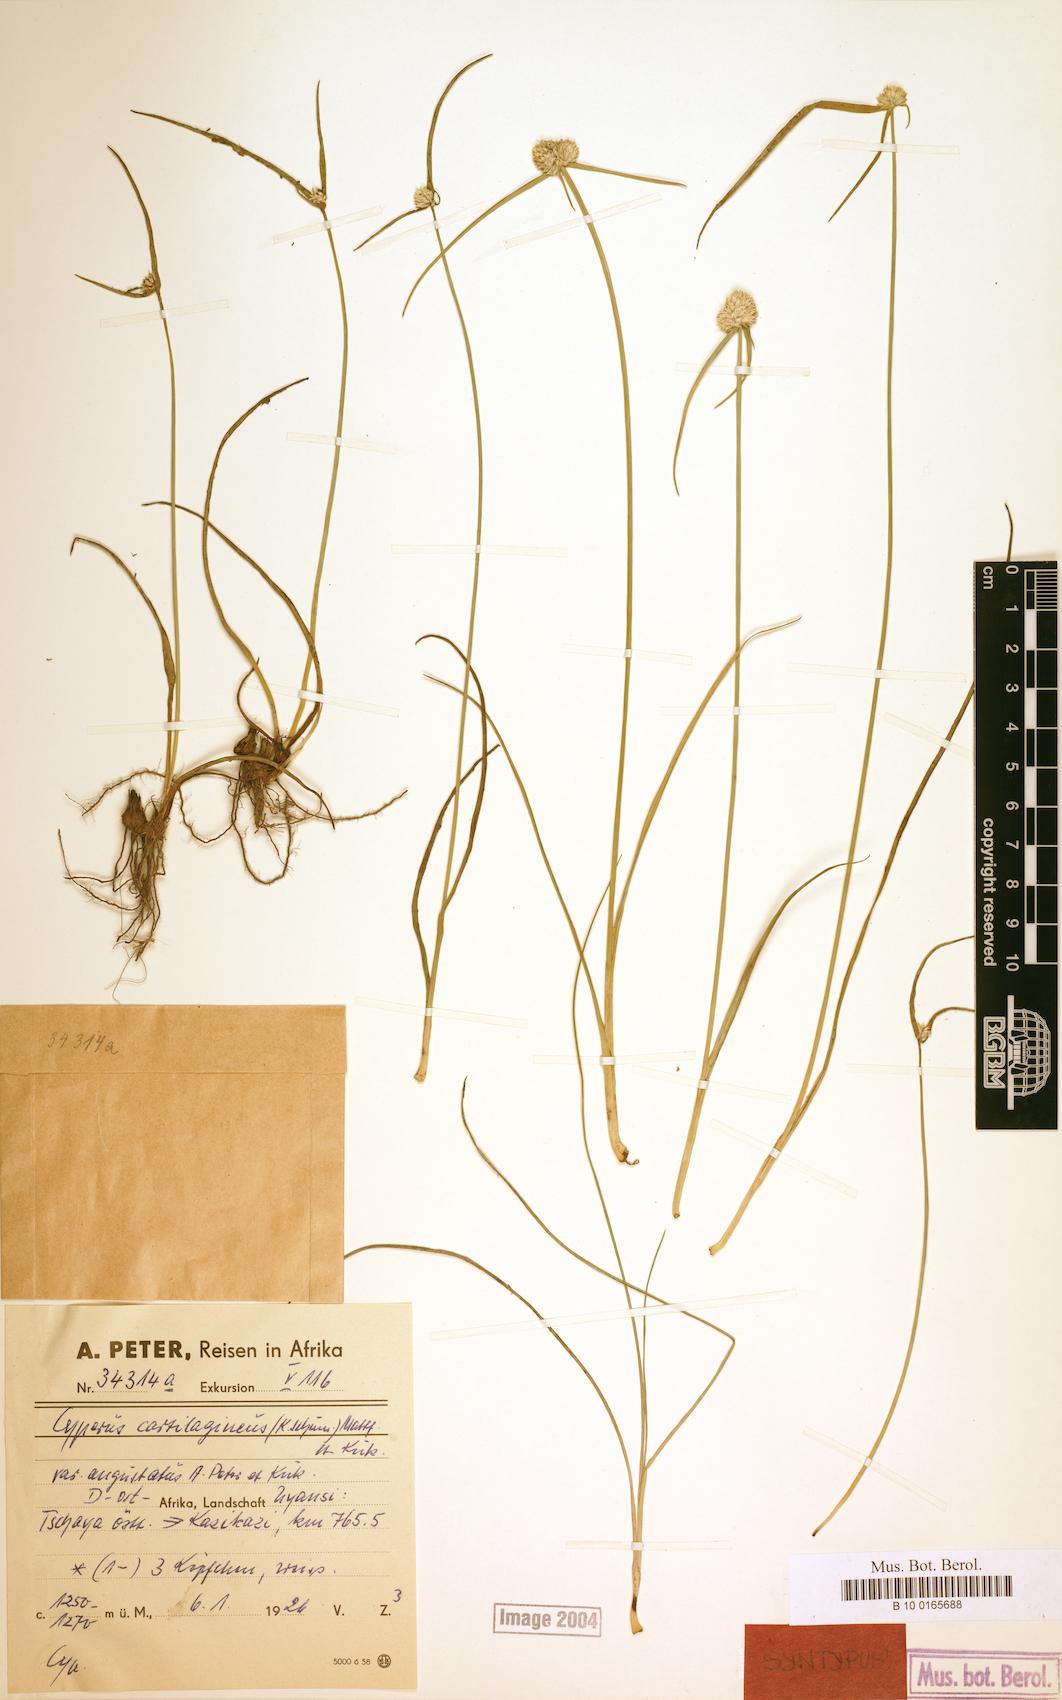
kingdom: Plantae
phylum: Tracheophyta
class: Liliopsida
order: Poales
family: Cyperaceae
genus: Cyperus
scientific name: Cyperus comosipes
